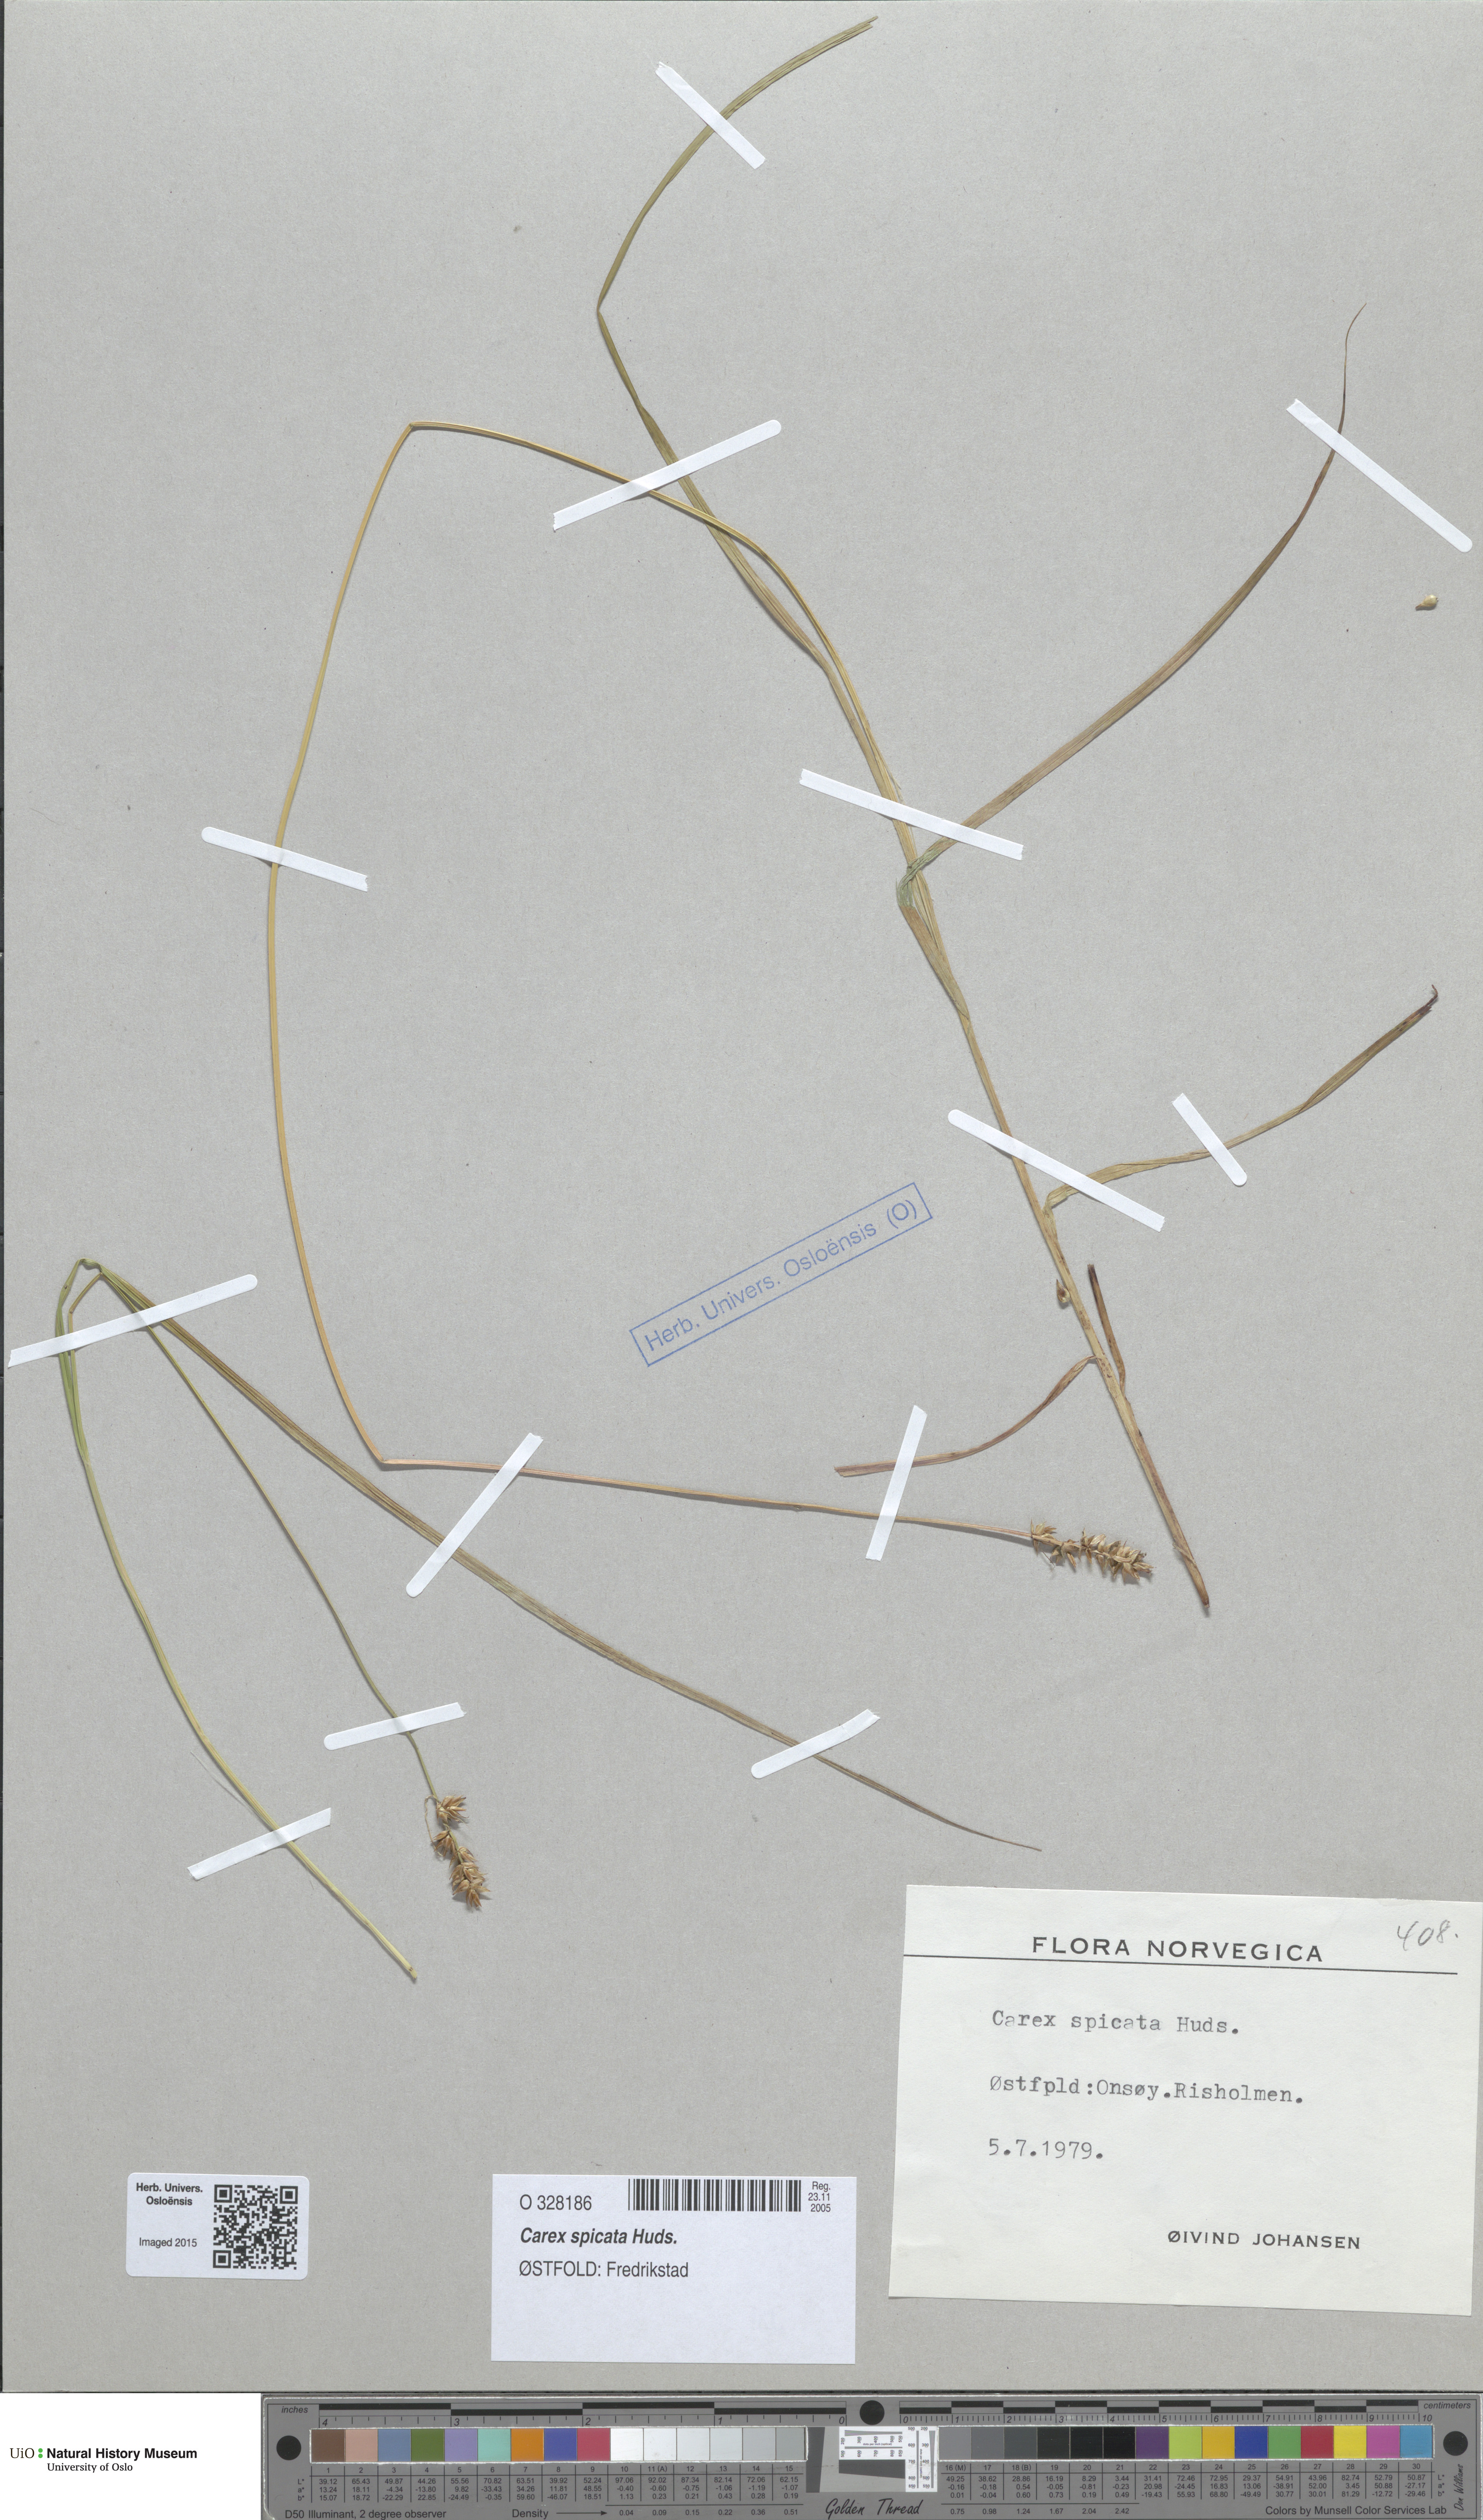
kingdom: Plantae
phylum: Tracheophyta
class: Liliopsida
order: Poales
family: Cyperaceae
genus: Carex
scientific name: Carex spicata
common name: Spiked sedge
